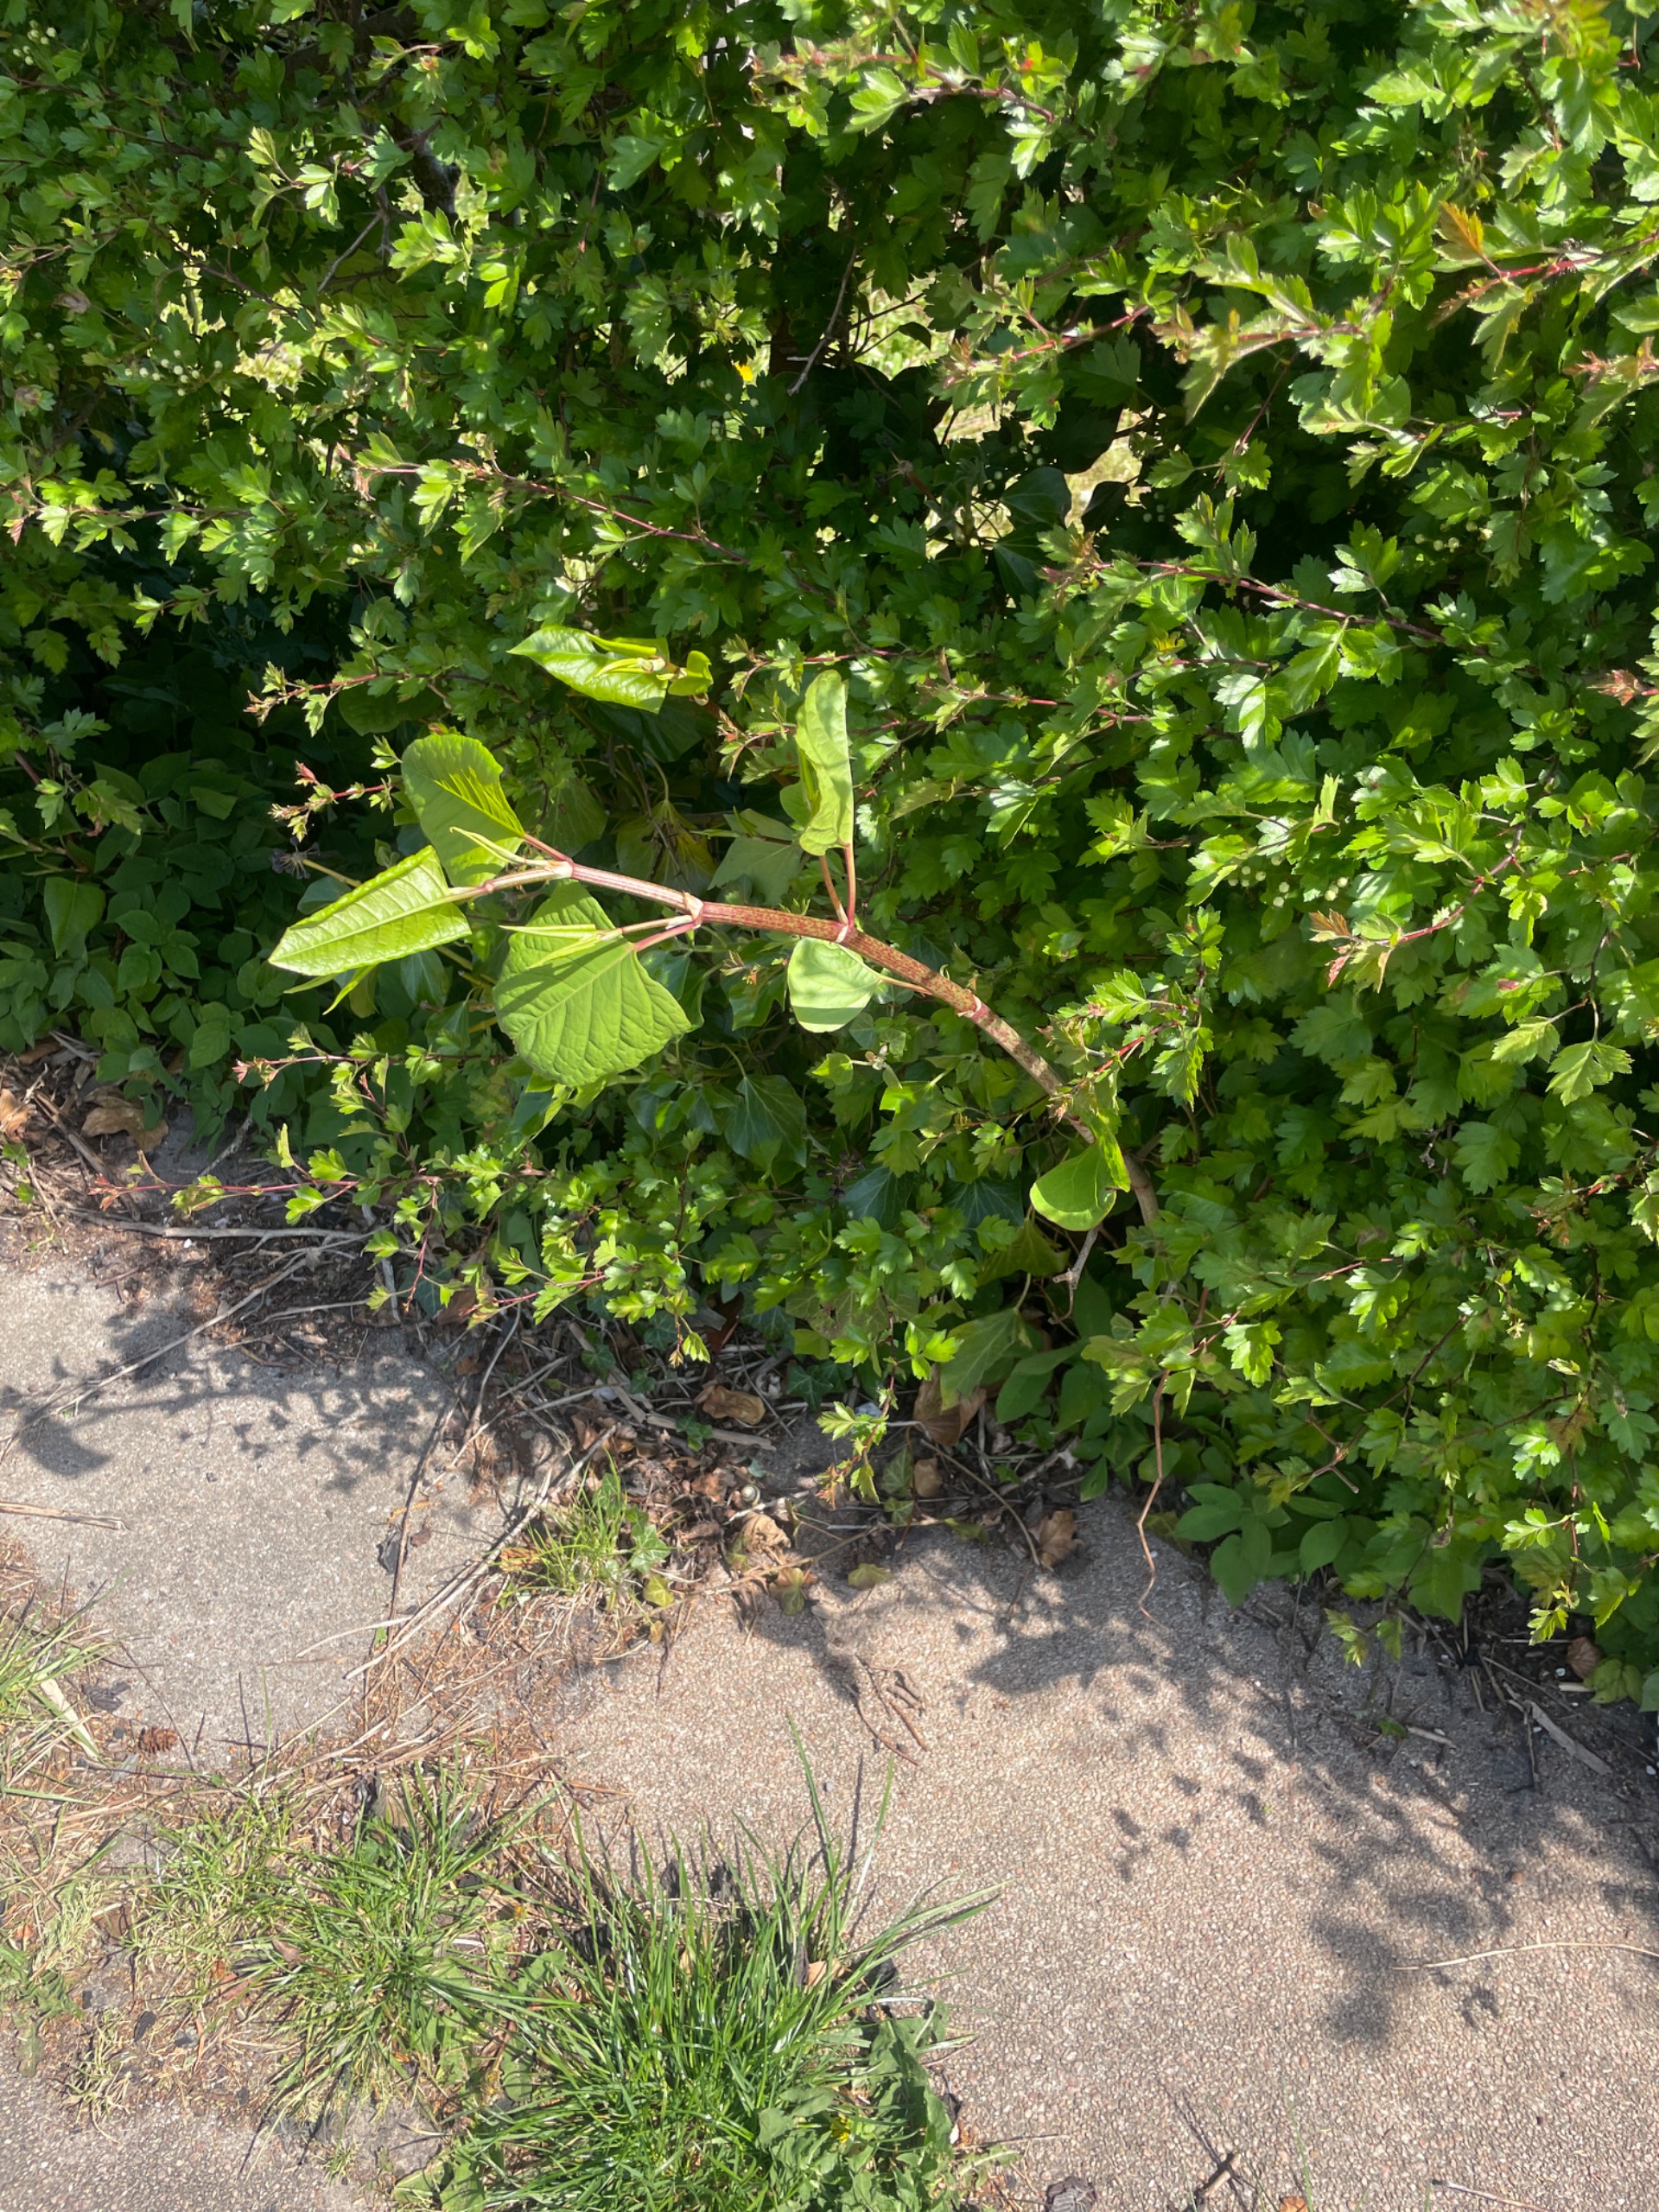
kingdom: Plantae
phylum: Tracheophyta
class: Magnoliopsida
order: Caryophyllales
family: Polygonaceae
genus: Reynoutria
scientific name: Reynoutria japonica
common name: Japan-pileurt
